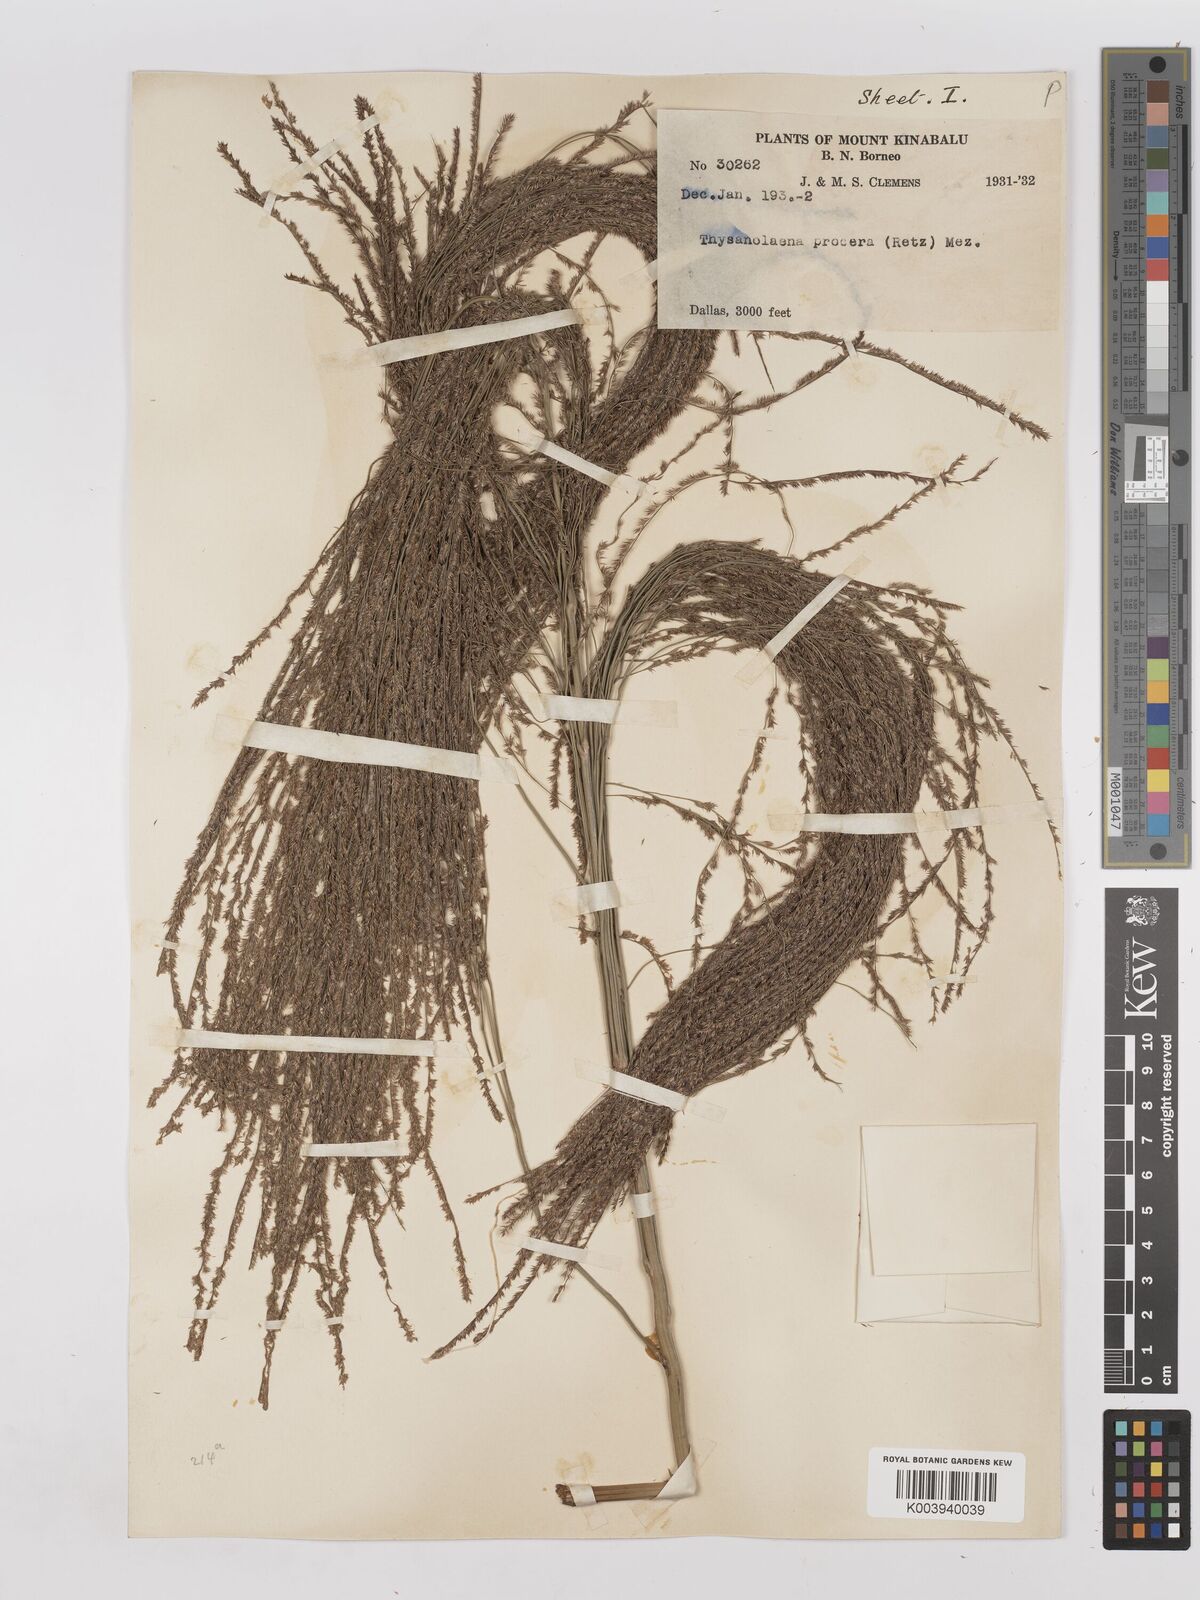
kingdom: Plantae
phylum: Tracheophyta
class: Liliopsida
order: Poales
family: Poaceae
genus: Thysanolaena
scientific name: Thysanolaena latifolia
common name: Tiger grass
